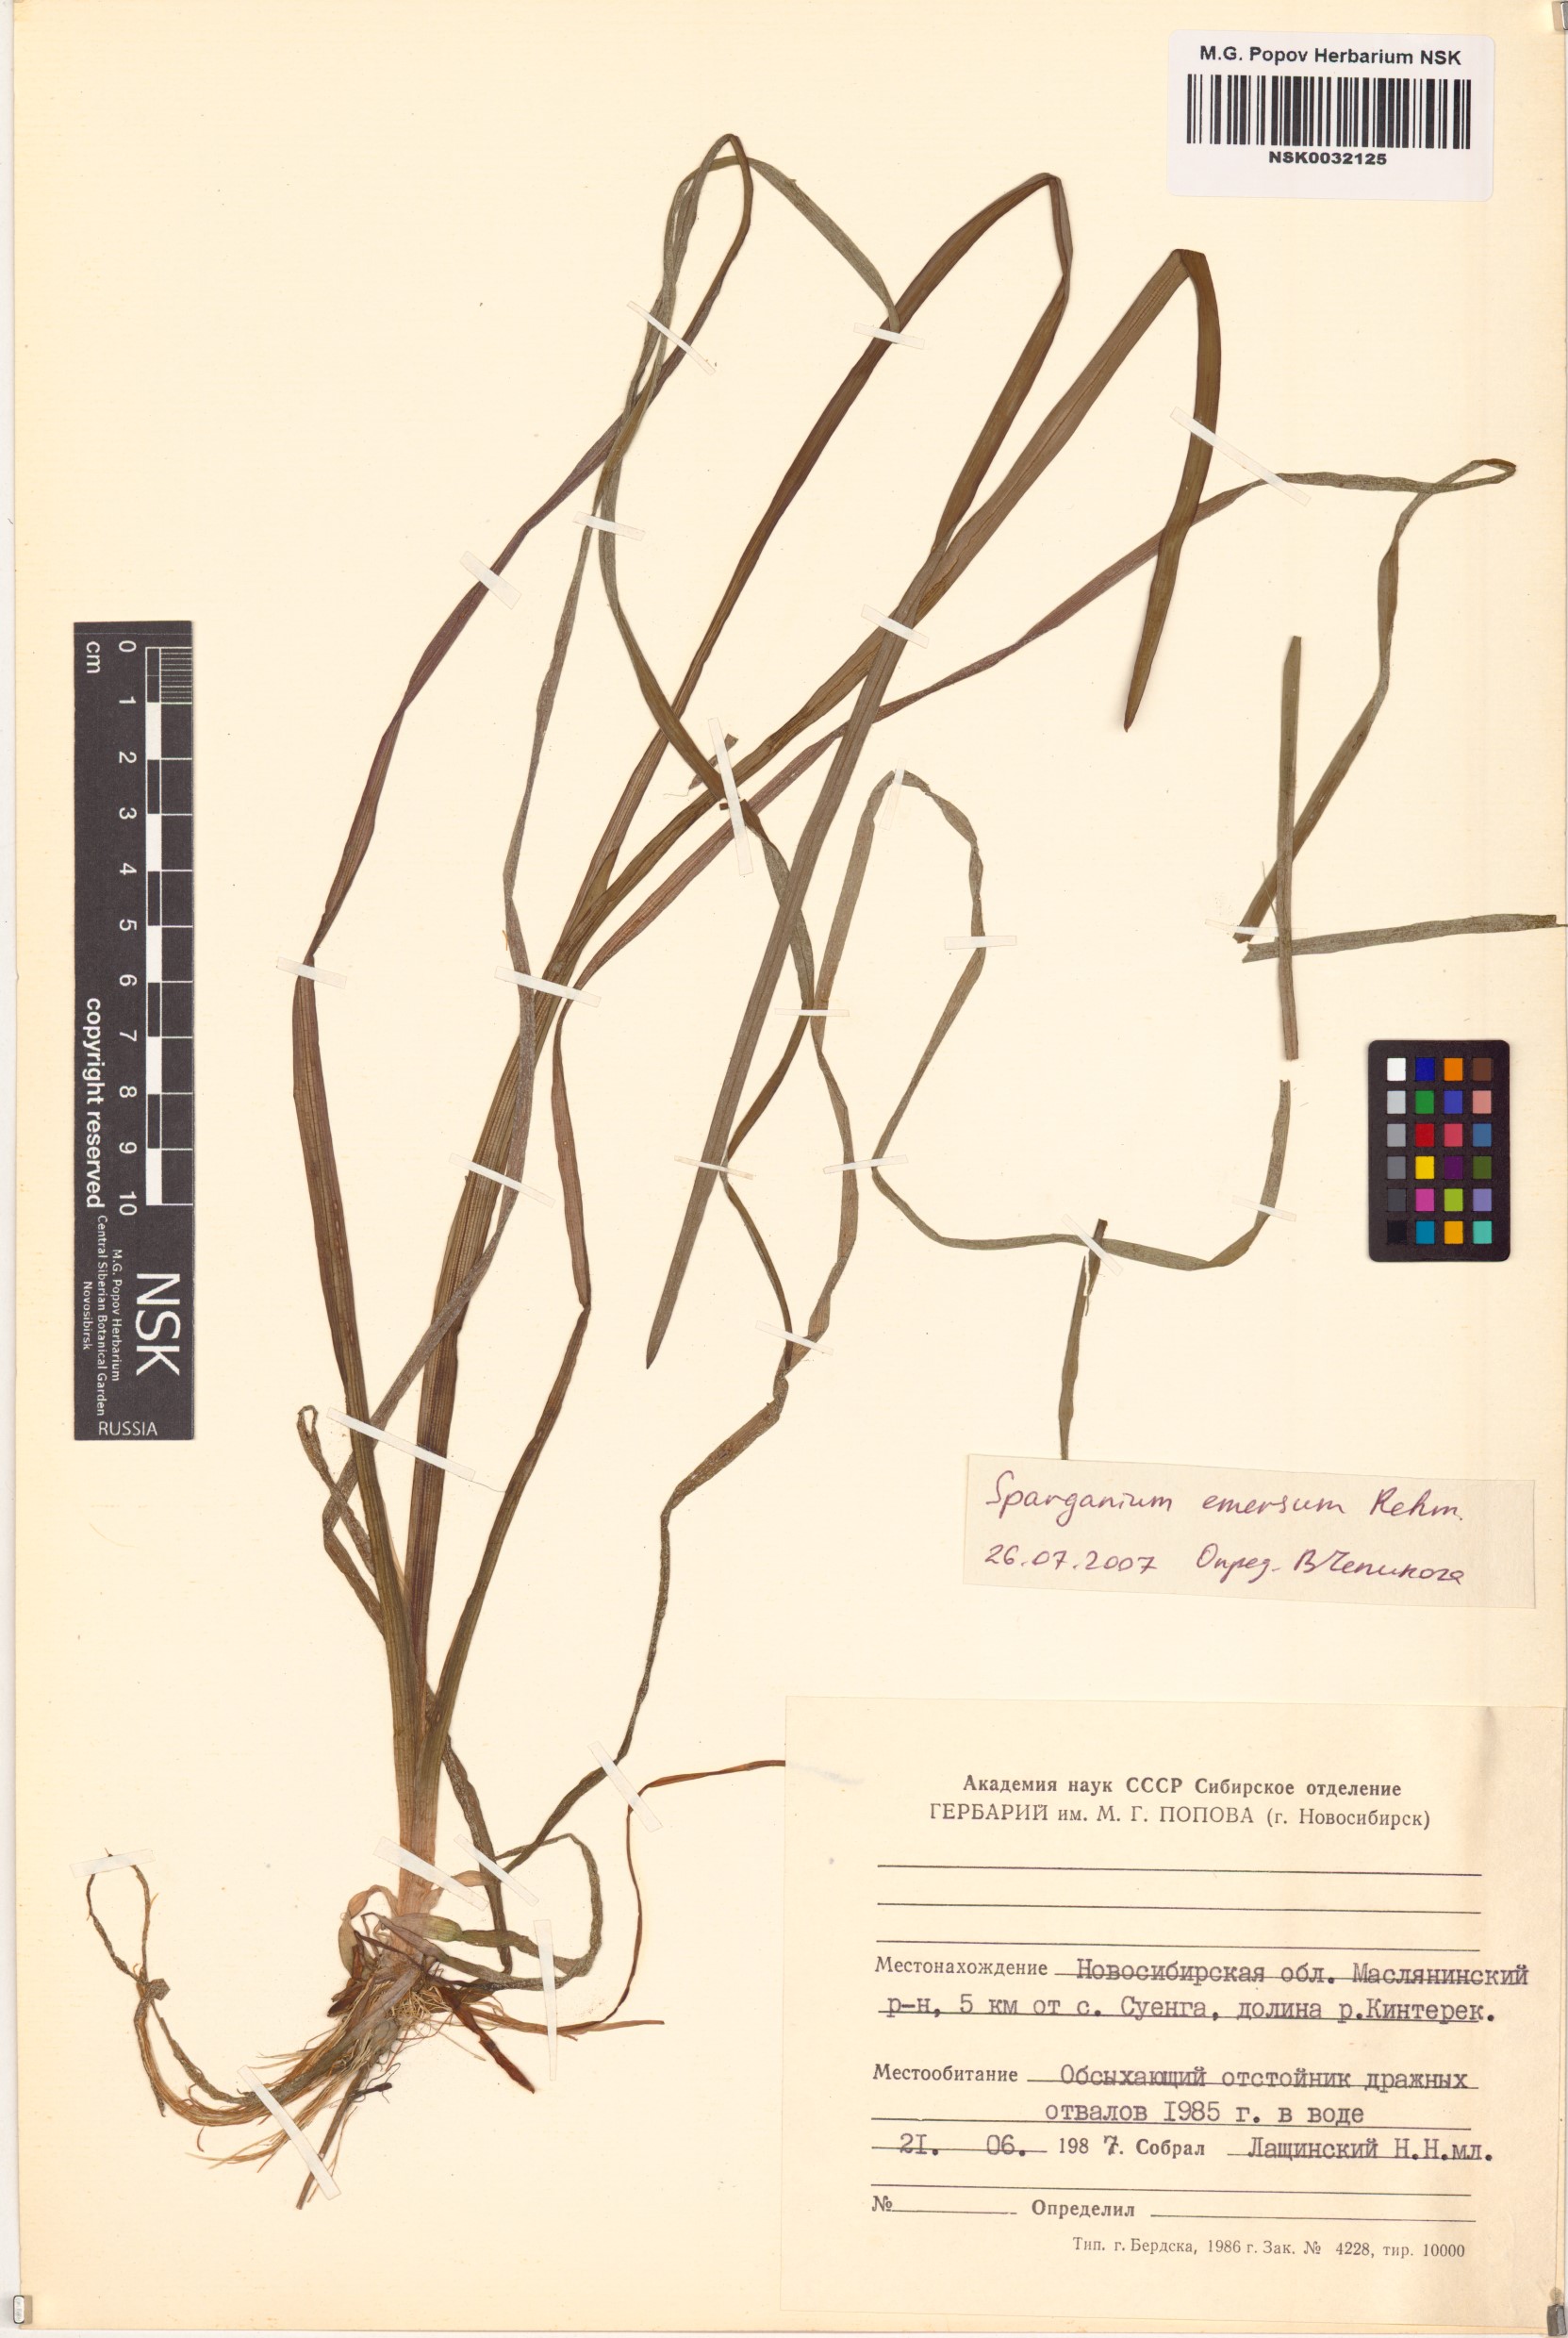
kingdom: Plantae
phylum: Tracheophyta
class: Liliopsida
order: Poales
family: Typhaceae
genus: Sparganium
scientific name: Sparganium emersum
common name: Unbranched bur-reed
